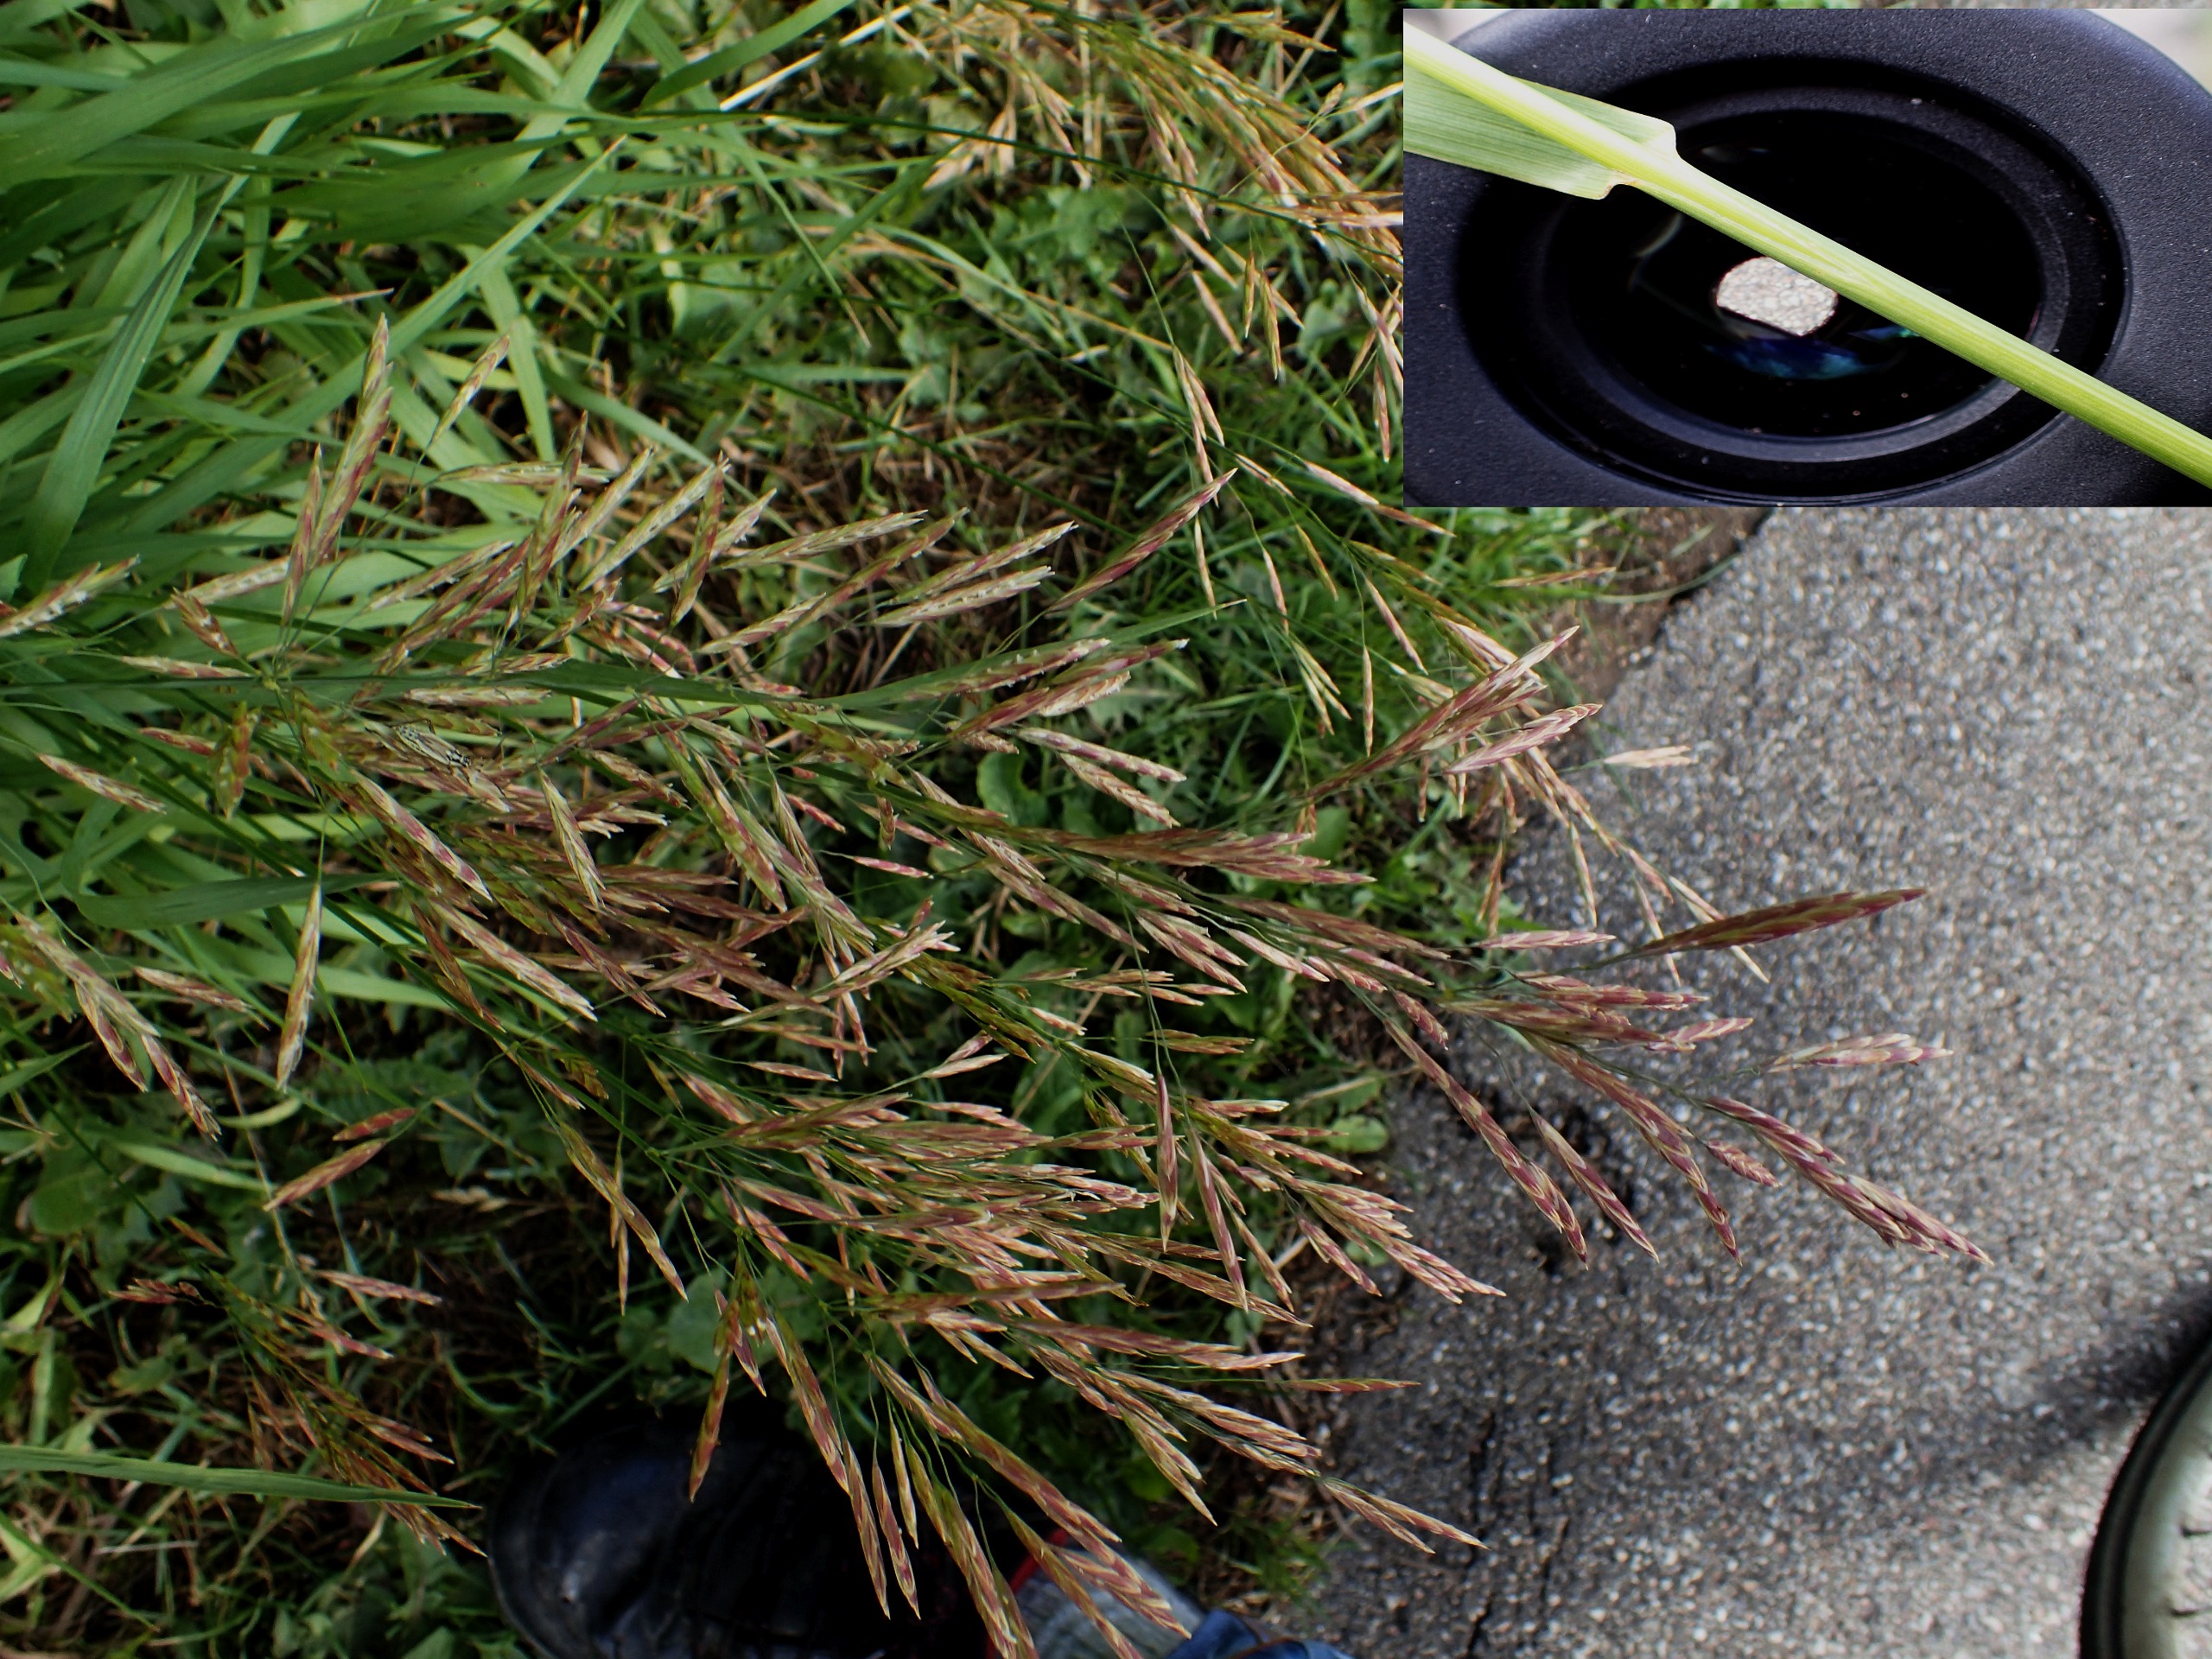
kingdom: Plantae
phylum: Tracheophyta
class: Liliopsida
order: Poales
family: Poaceae
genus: Bromus
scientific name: Bromus inermis
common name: Stakløs hejre
